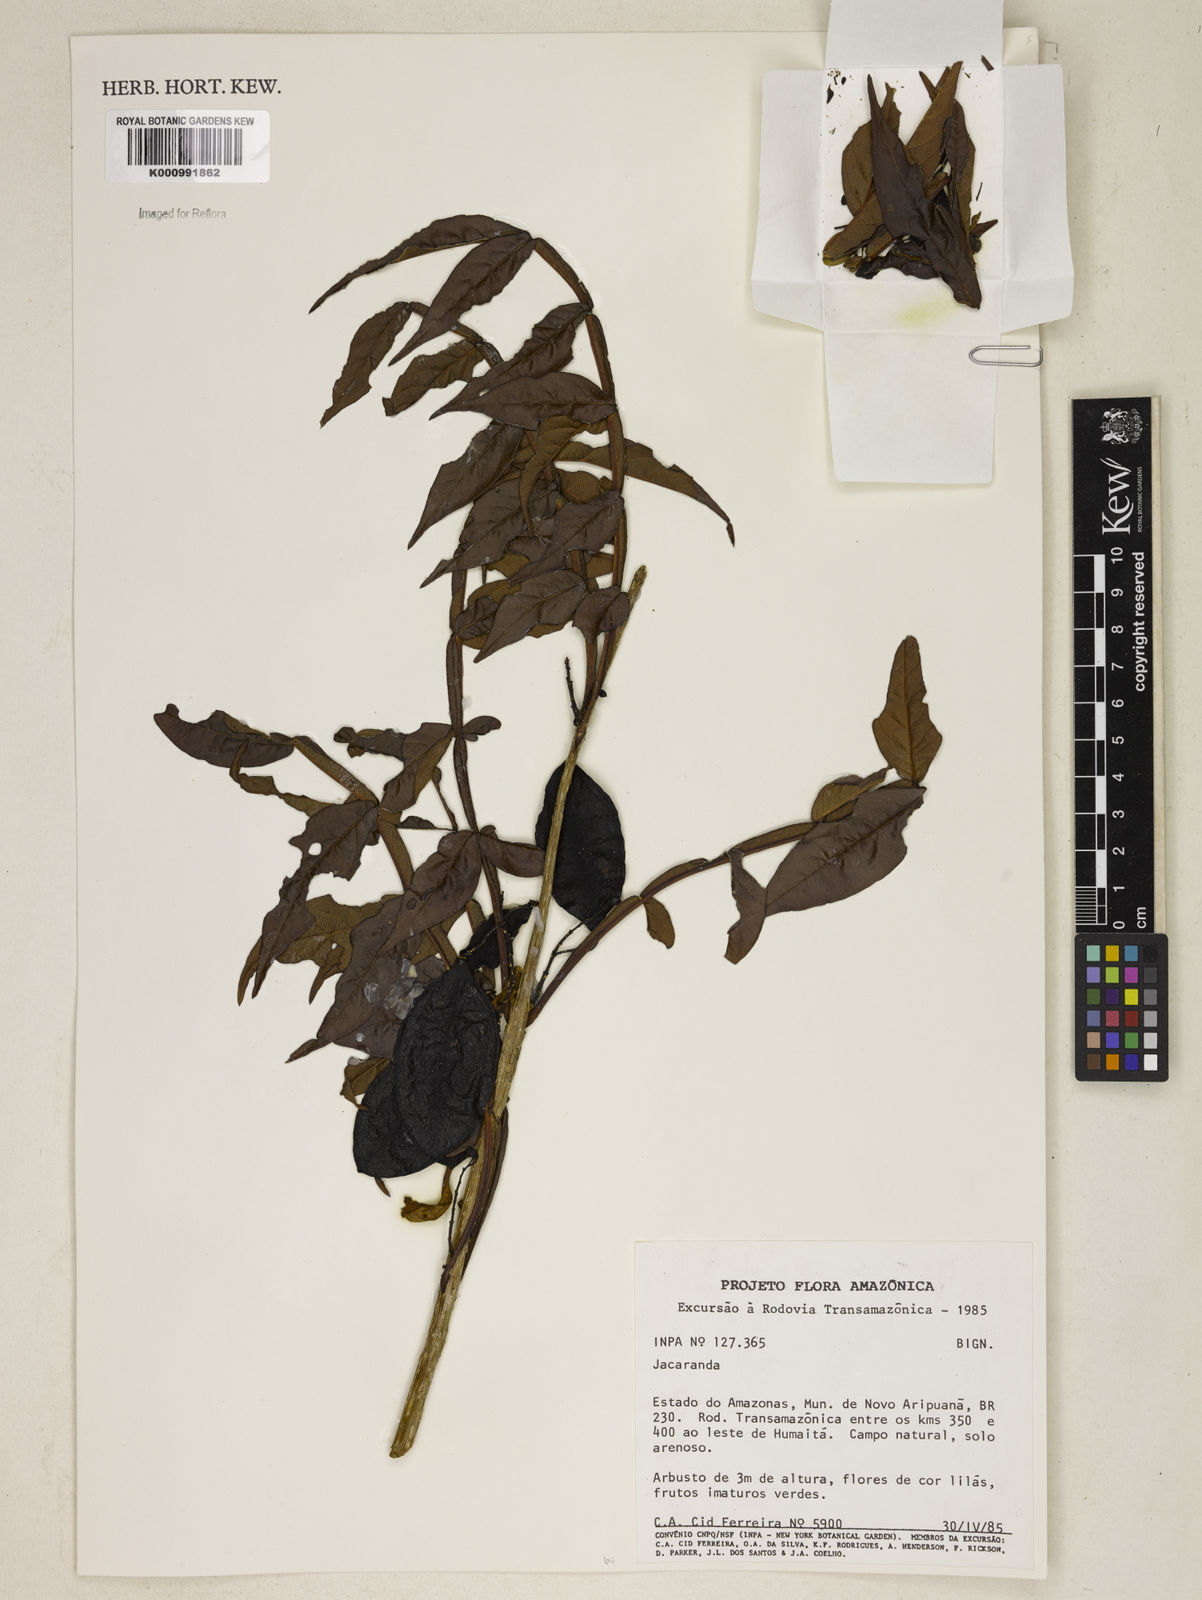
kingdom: Plantae
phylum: Tracheophyta
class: Magnoliopsida
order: Lamiales
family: Bignoniaceae
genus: Jacaranda
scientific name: Jacaranda
